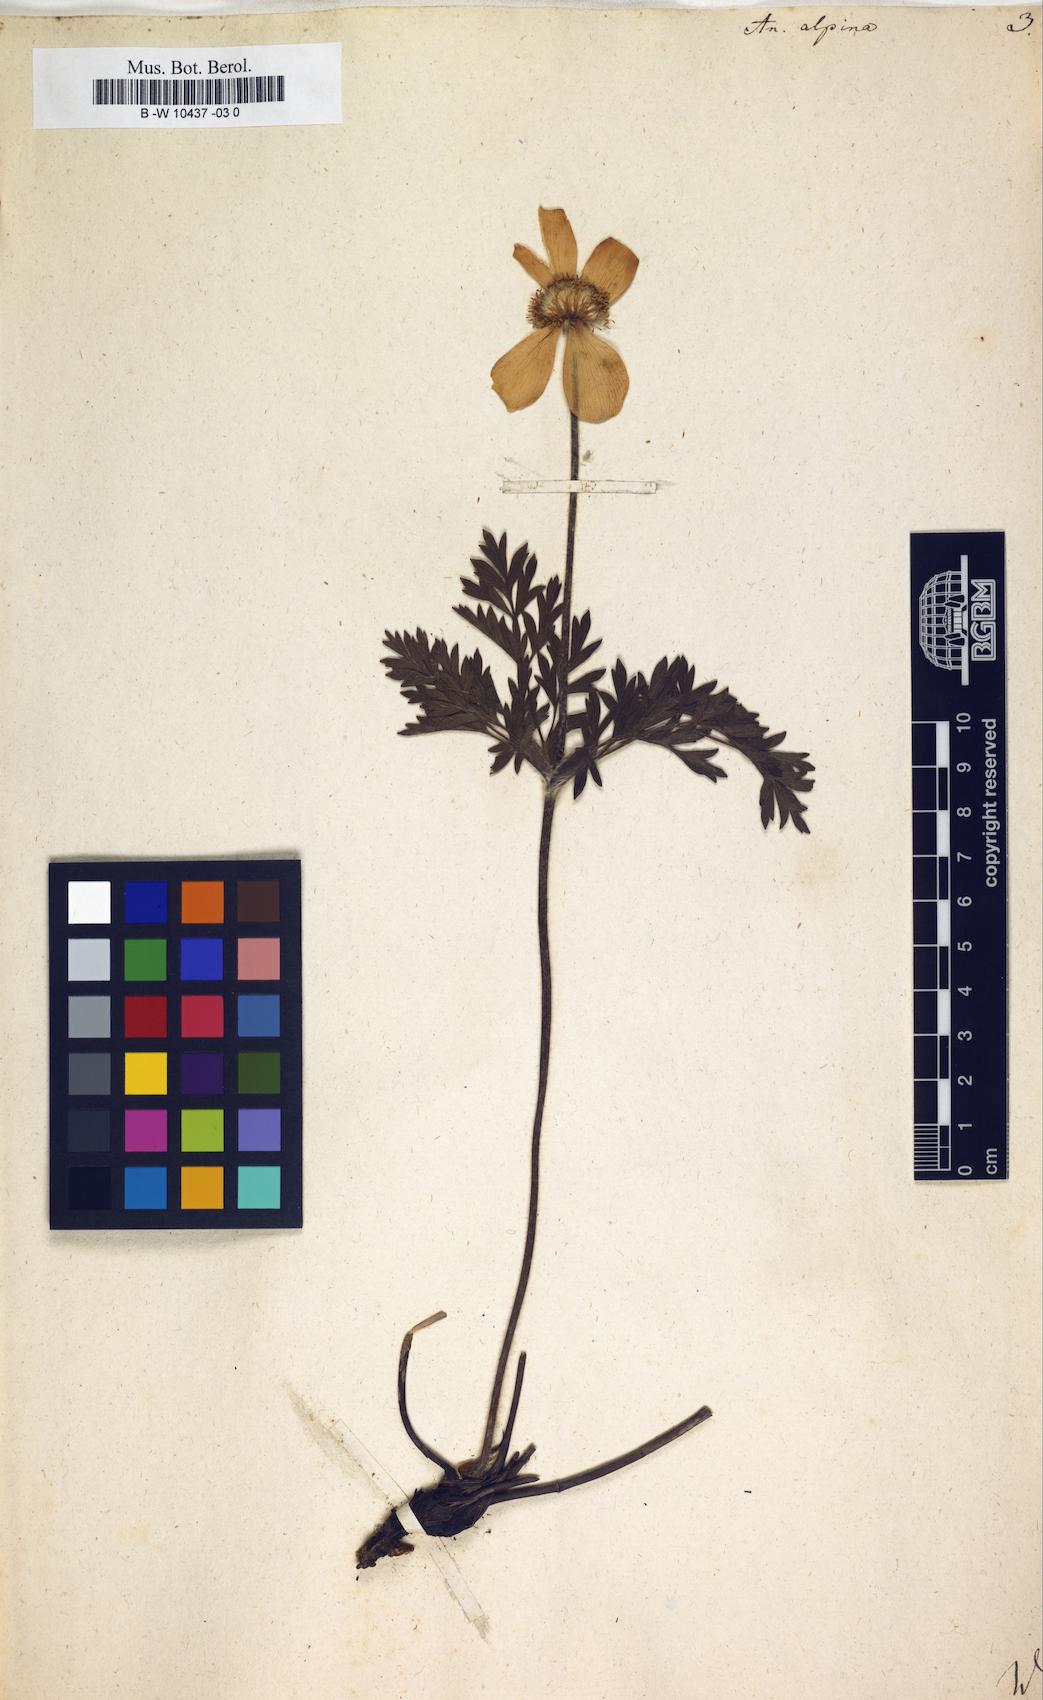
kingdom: Plantae
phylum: Tracheophyta
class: Magnoliopsida
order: Ranunculales
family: Ranunculaceae
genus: Pulsatilla
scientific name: Pulsatilla alpina
